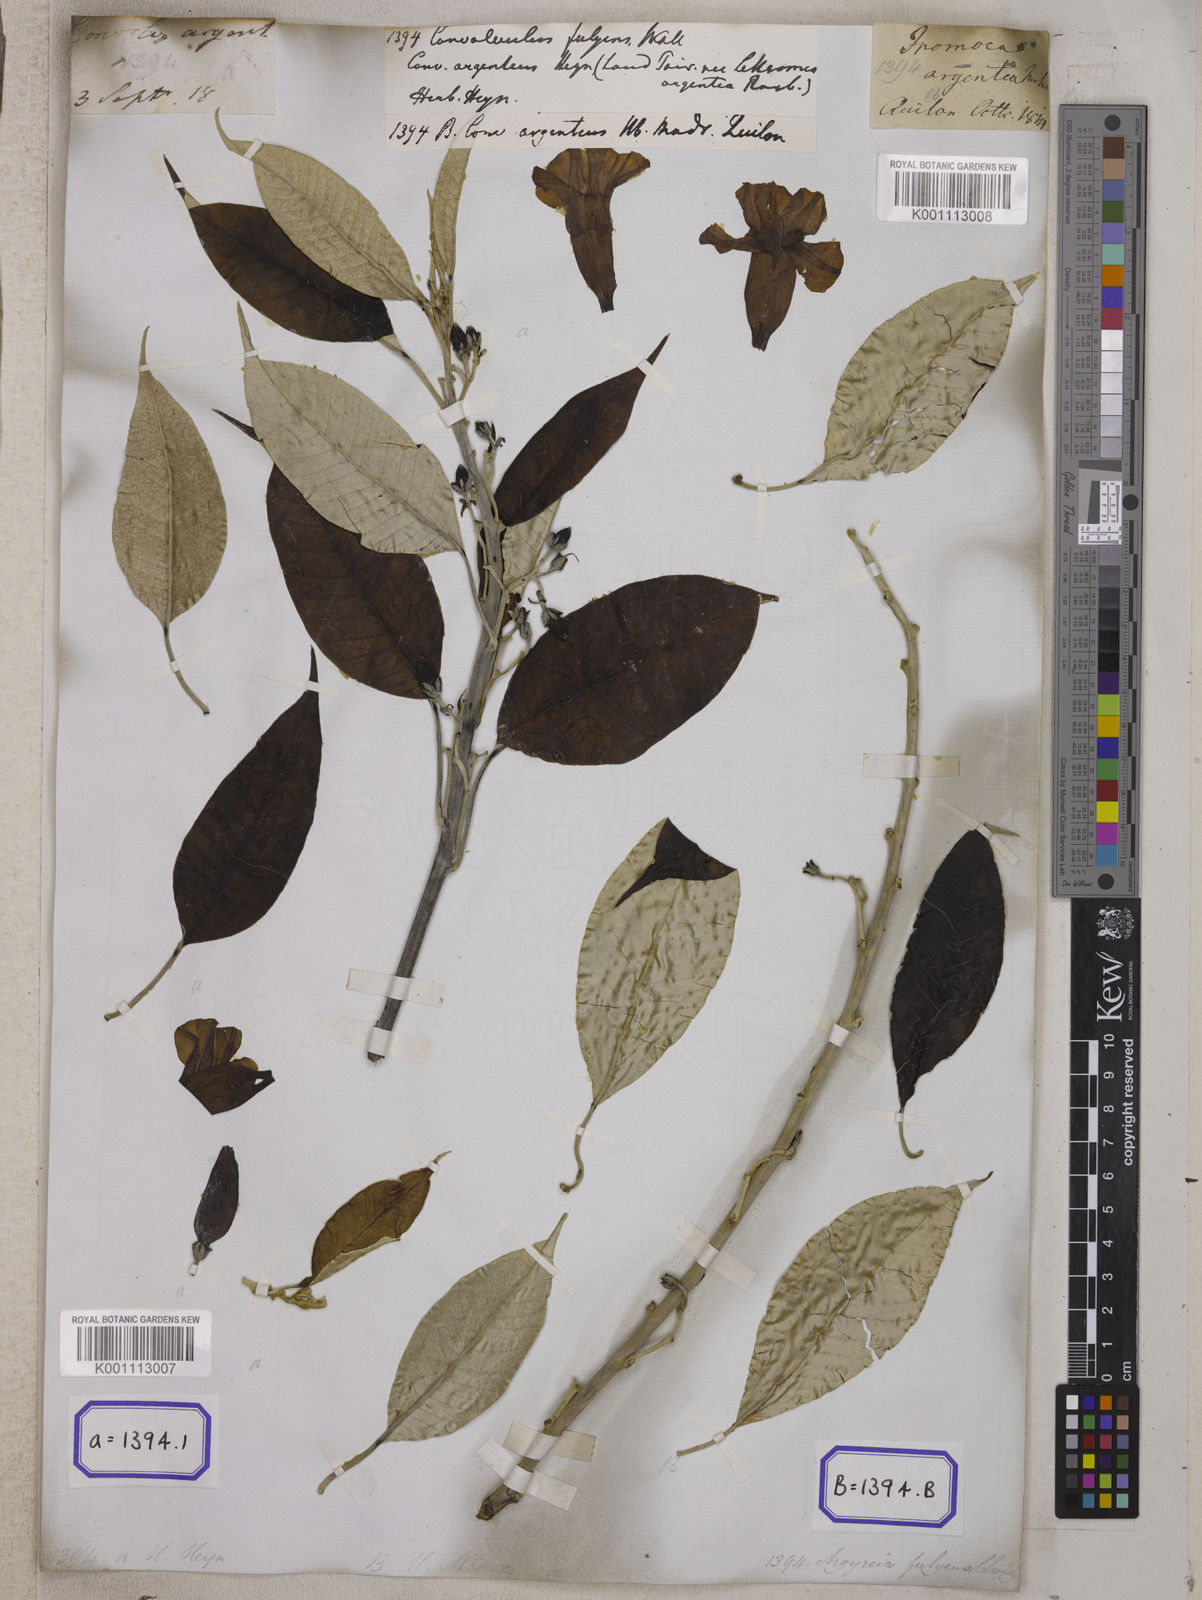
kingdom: Plantae
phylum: Tracheophyta
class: Magnoliopsida
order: Solanales
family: Convolvulaceae
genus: Argyreia
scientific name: Argyreia fulgens
